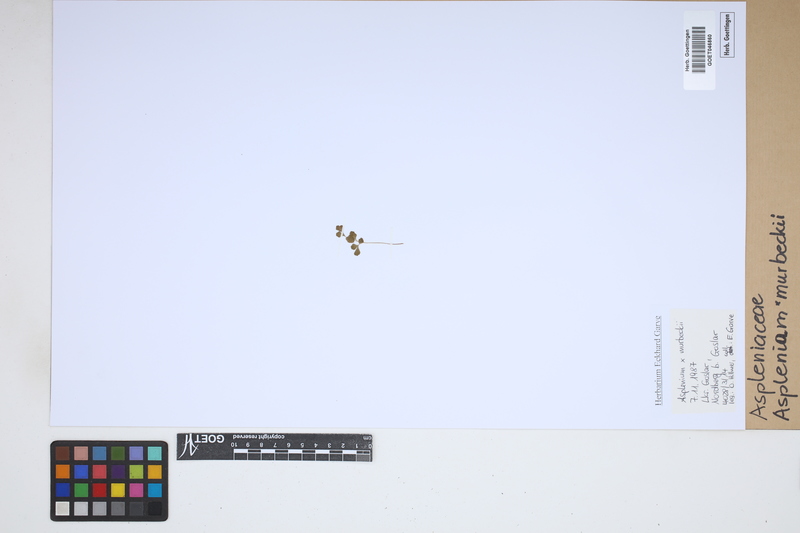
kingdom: Plantae
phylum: Tracheophyta
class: Polypodiopsida
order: Polypodiales
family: Aspleniaceae
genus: Asplenium
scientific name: Asplenium murbeckii
